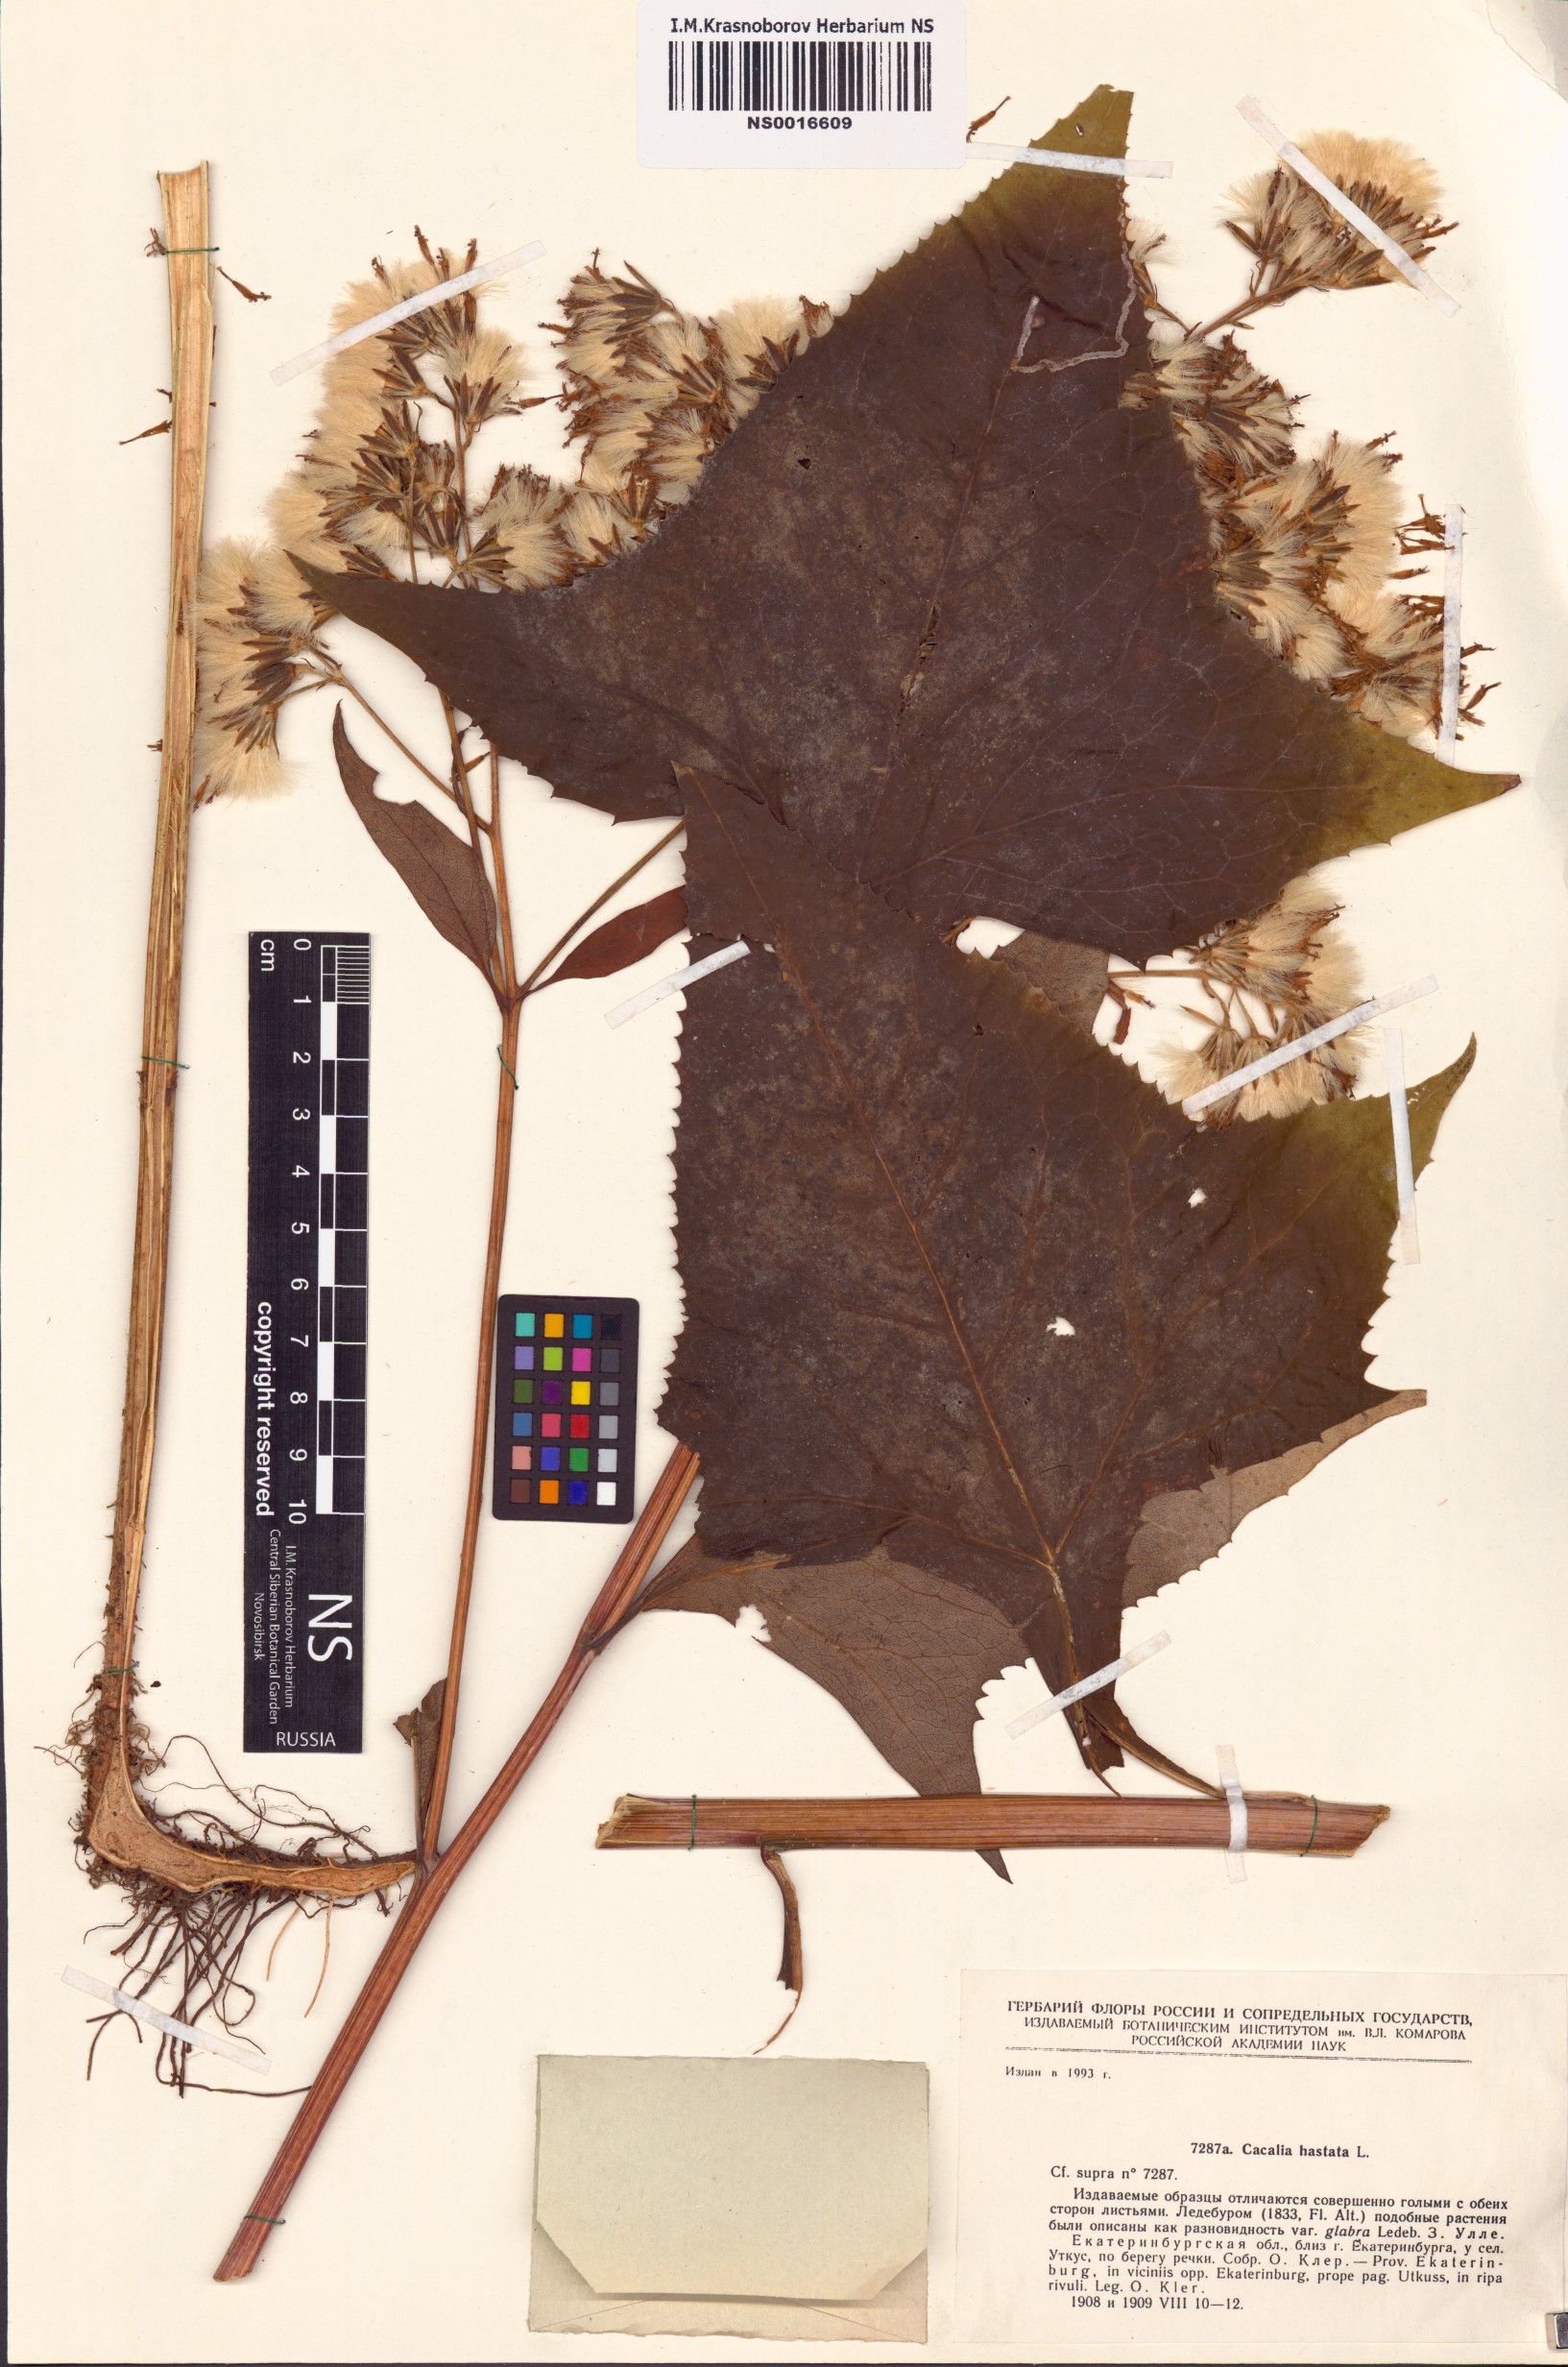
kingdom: Plantae
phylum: Tracheophyta
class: Magnoliopsida
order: Asterales
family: Asteraceae
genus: Parasenecio
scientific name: Parasenecio hastatus
